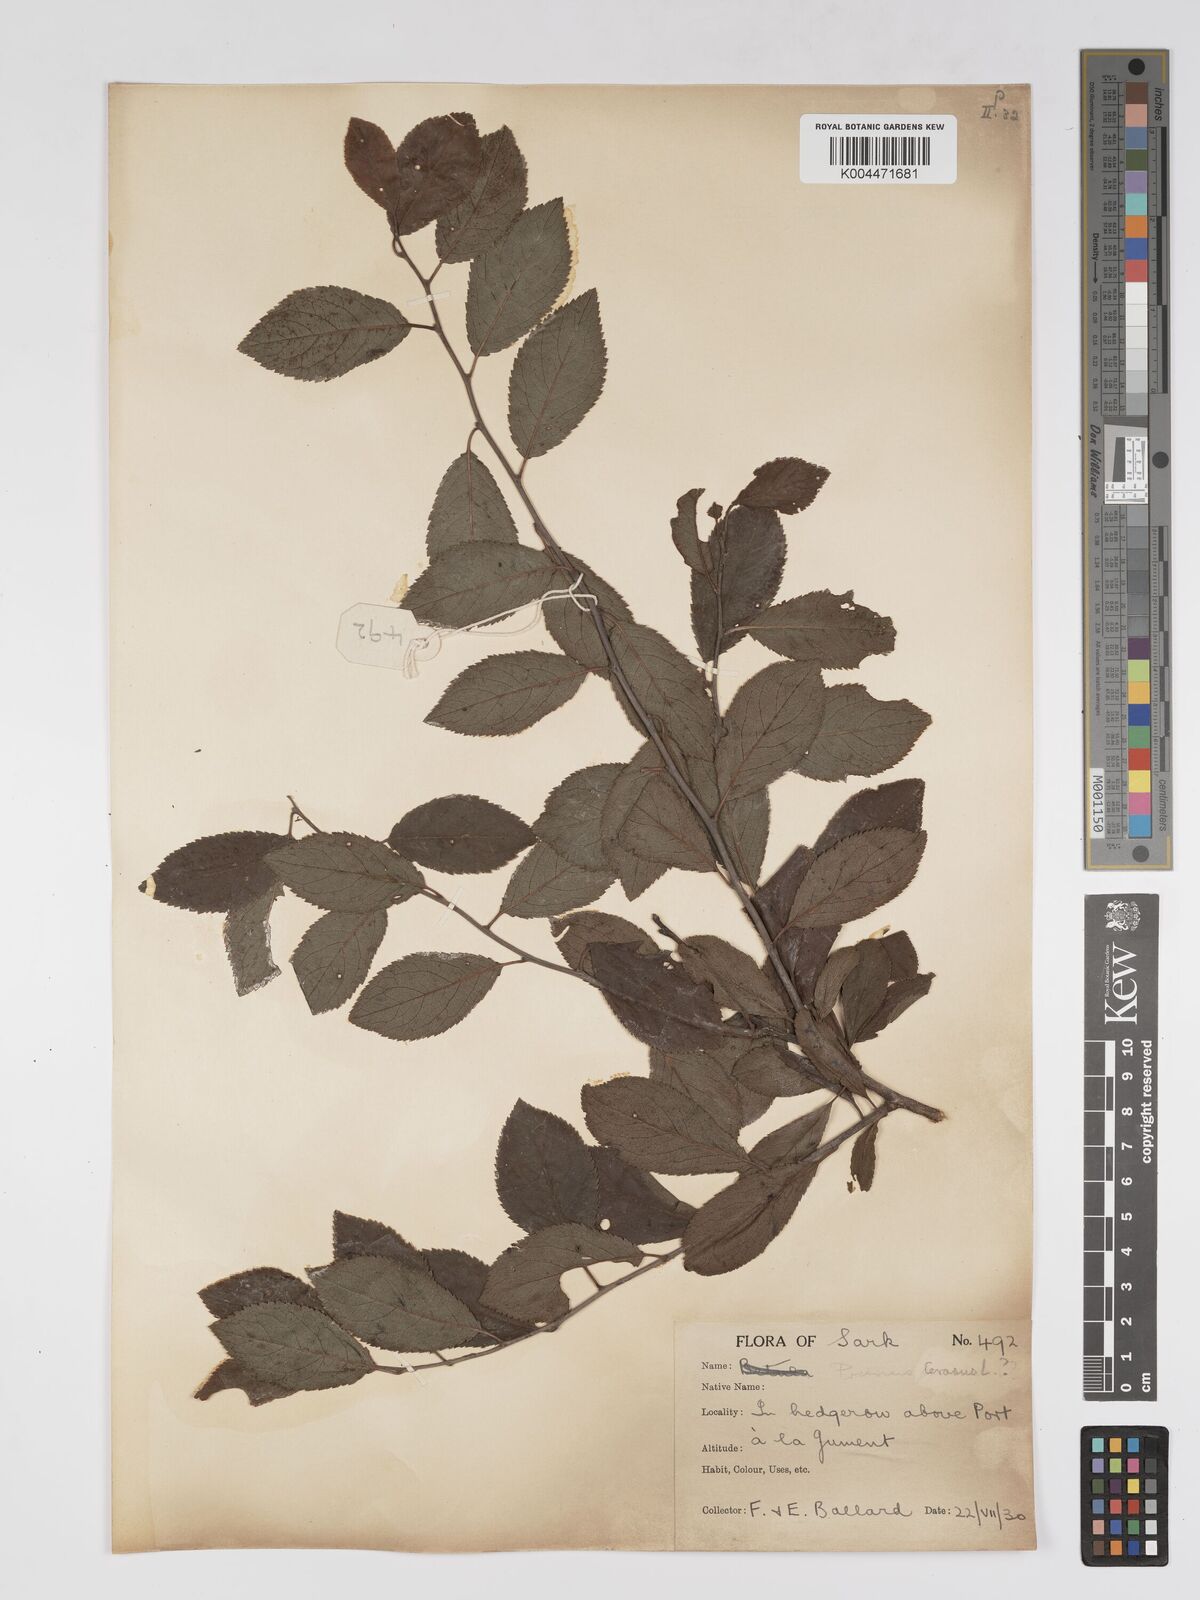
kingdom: Plantae
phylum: Tracheophyta
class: Magnoliopsida
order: Rosales
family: Rosaceae
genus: Prunus
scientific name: Prunus
